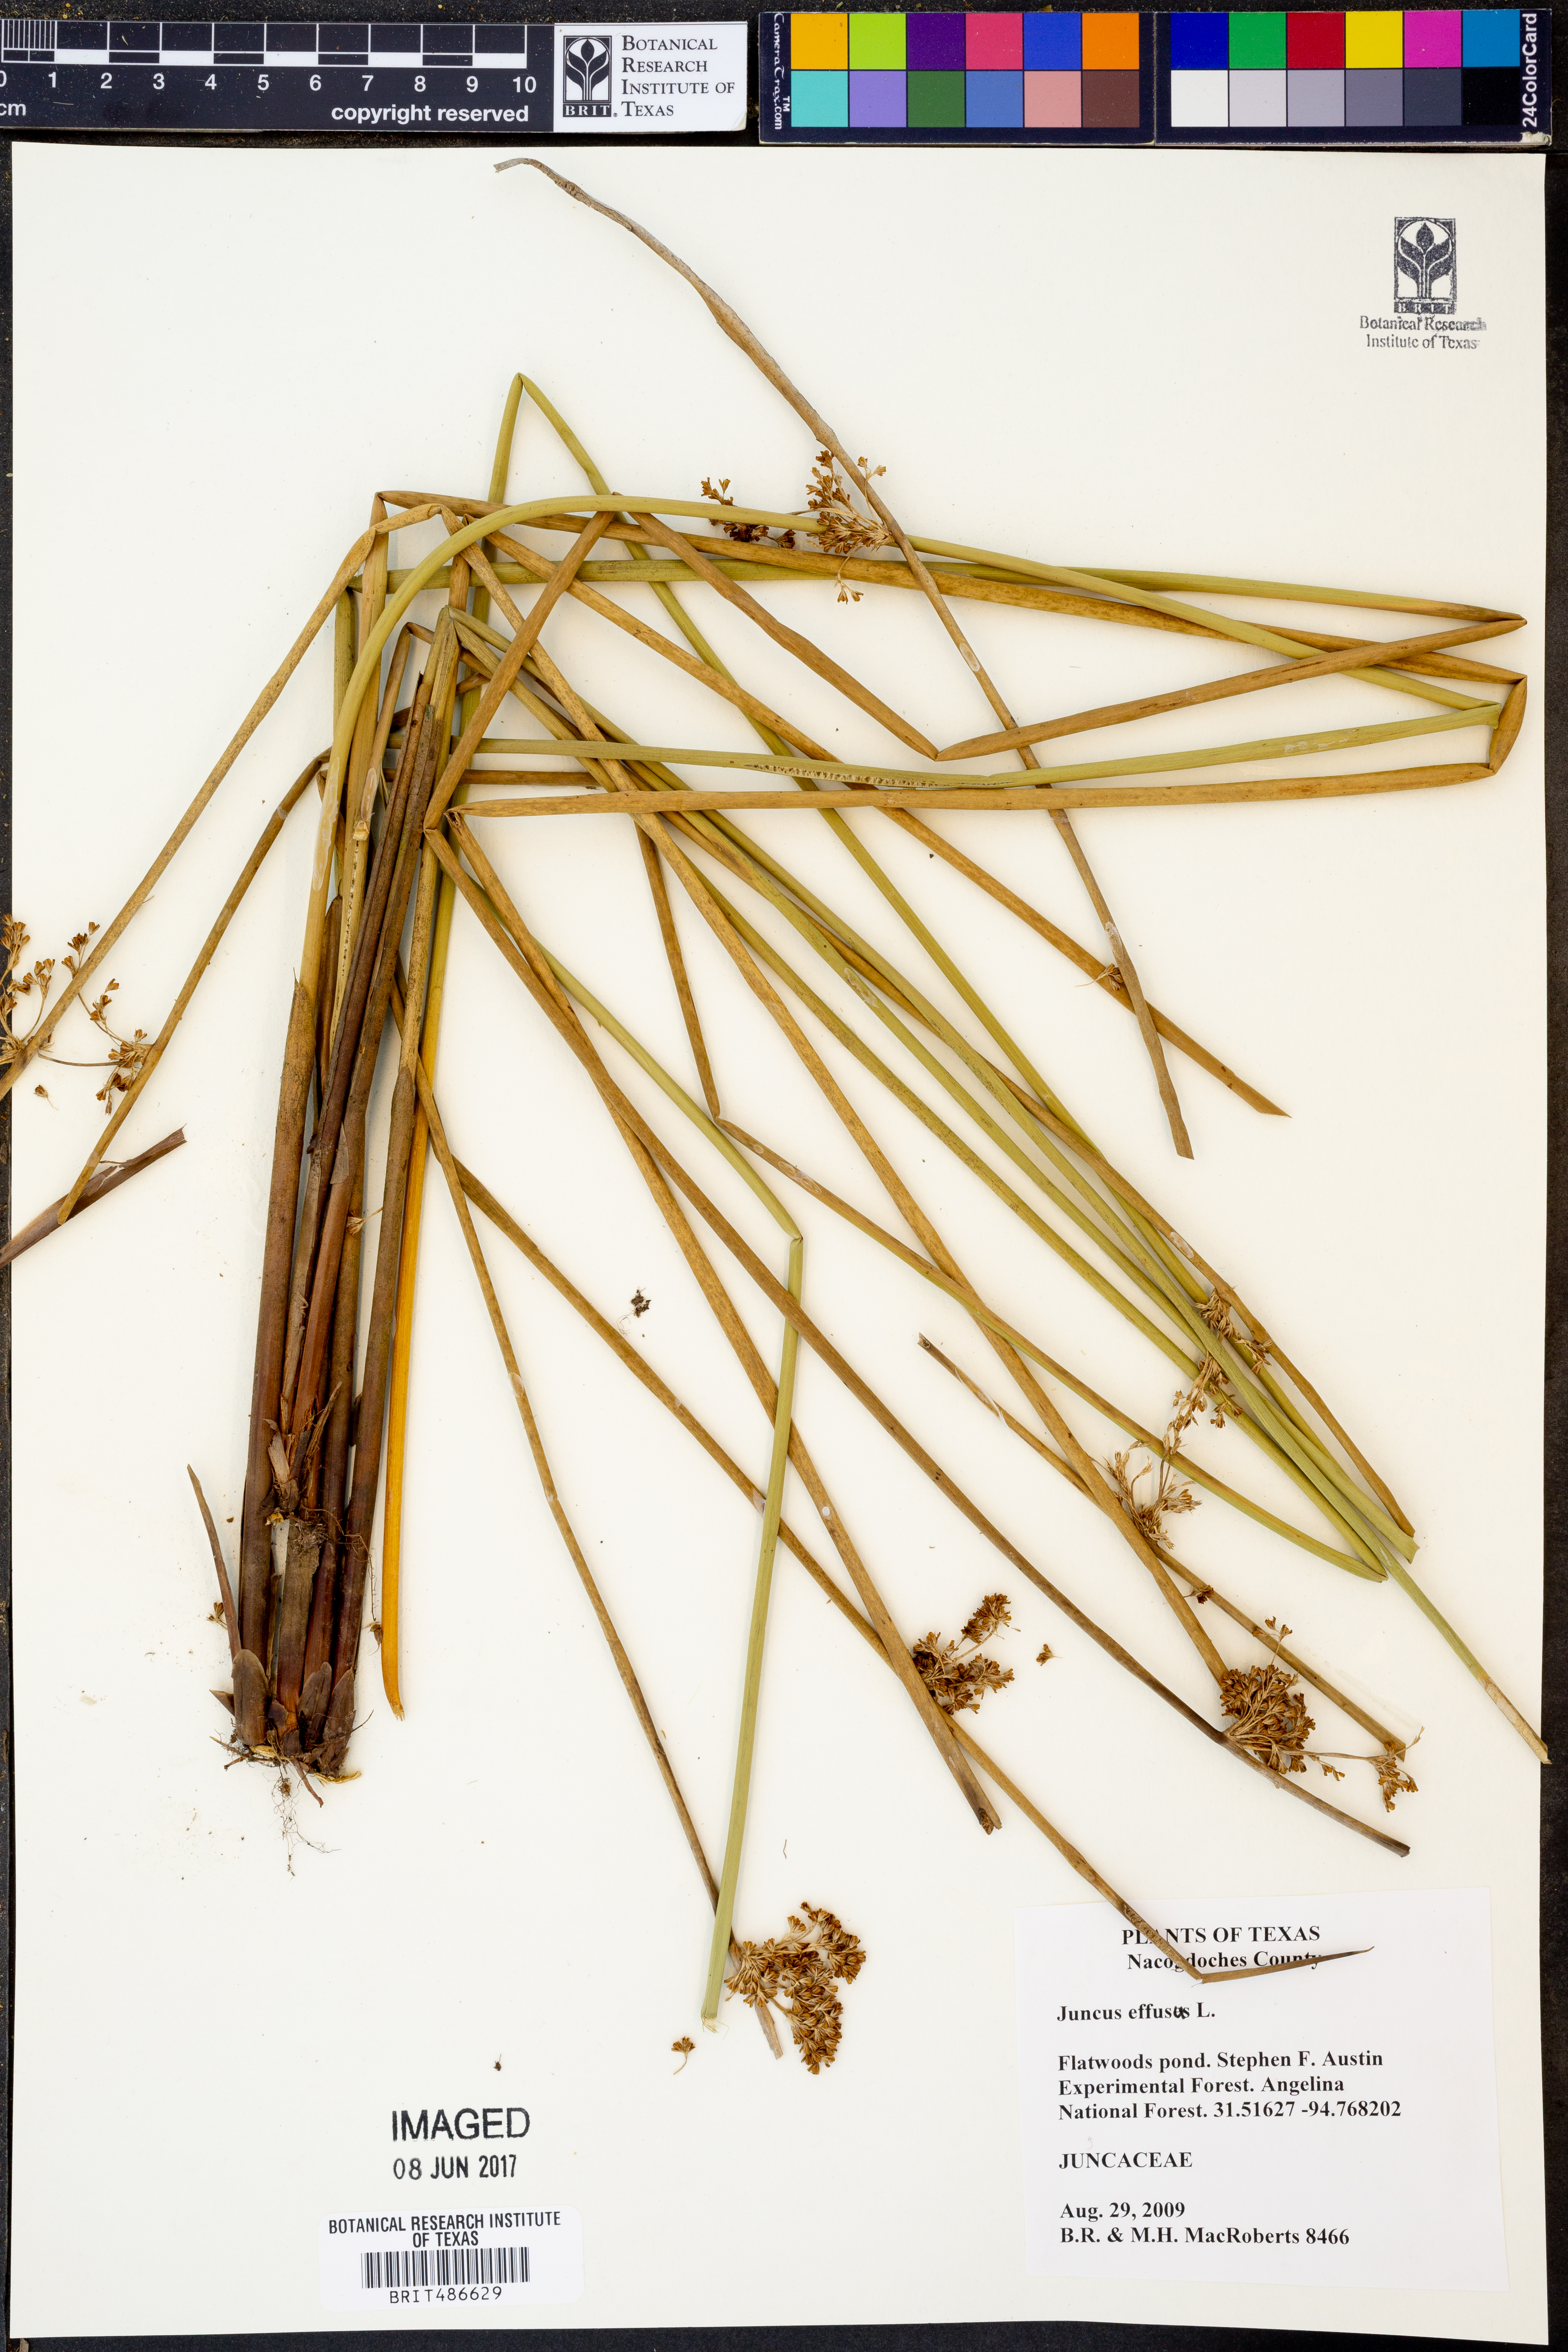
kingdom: Plantae
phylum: Tracheophyta
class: Liliopsida
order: Poales
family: Juncaceae
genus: Juncus
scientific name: Juncus effusus
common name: Soft rush
